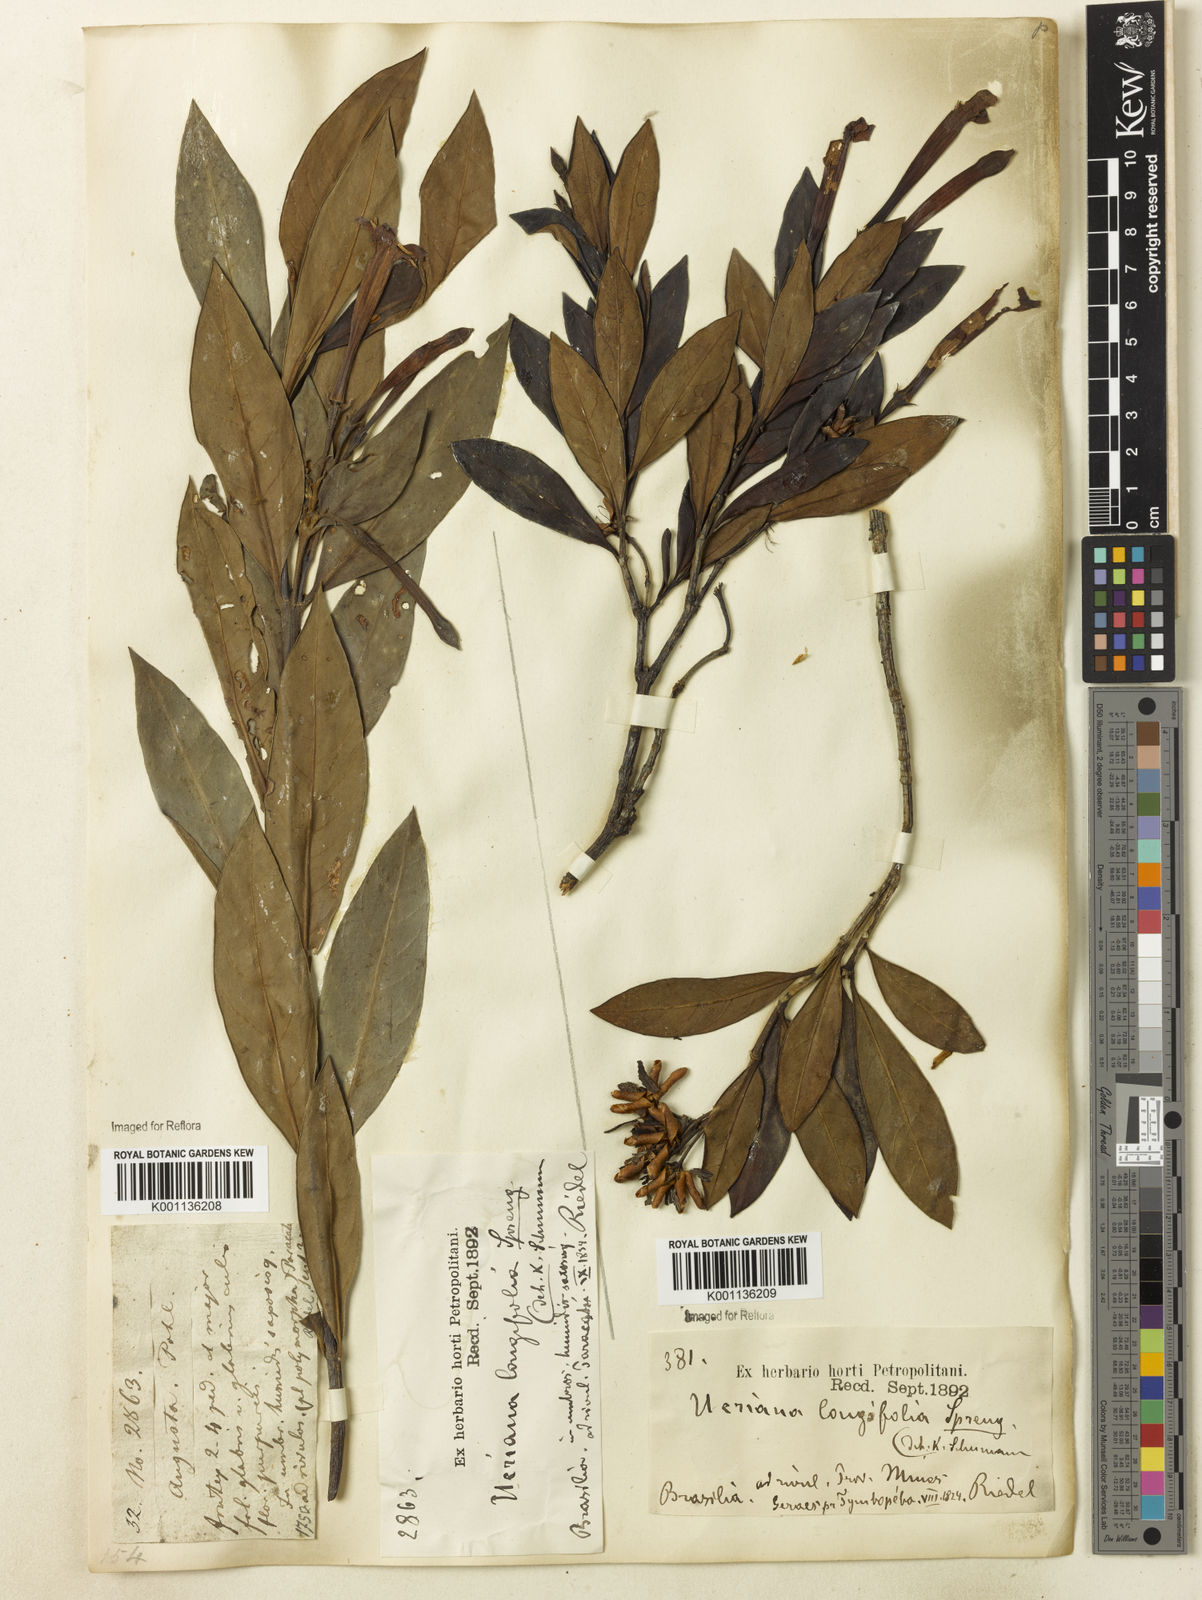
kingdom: Plantae
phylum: Tracheophyta
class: Magnoliopsida
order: Gentianales
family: Rubiaceae
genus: Augusta
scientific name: Augusta longifolia
